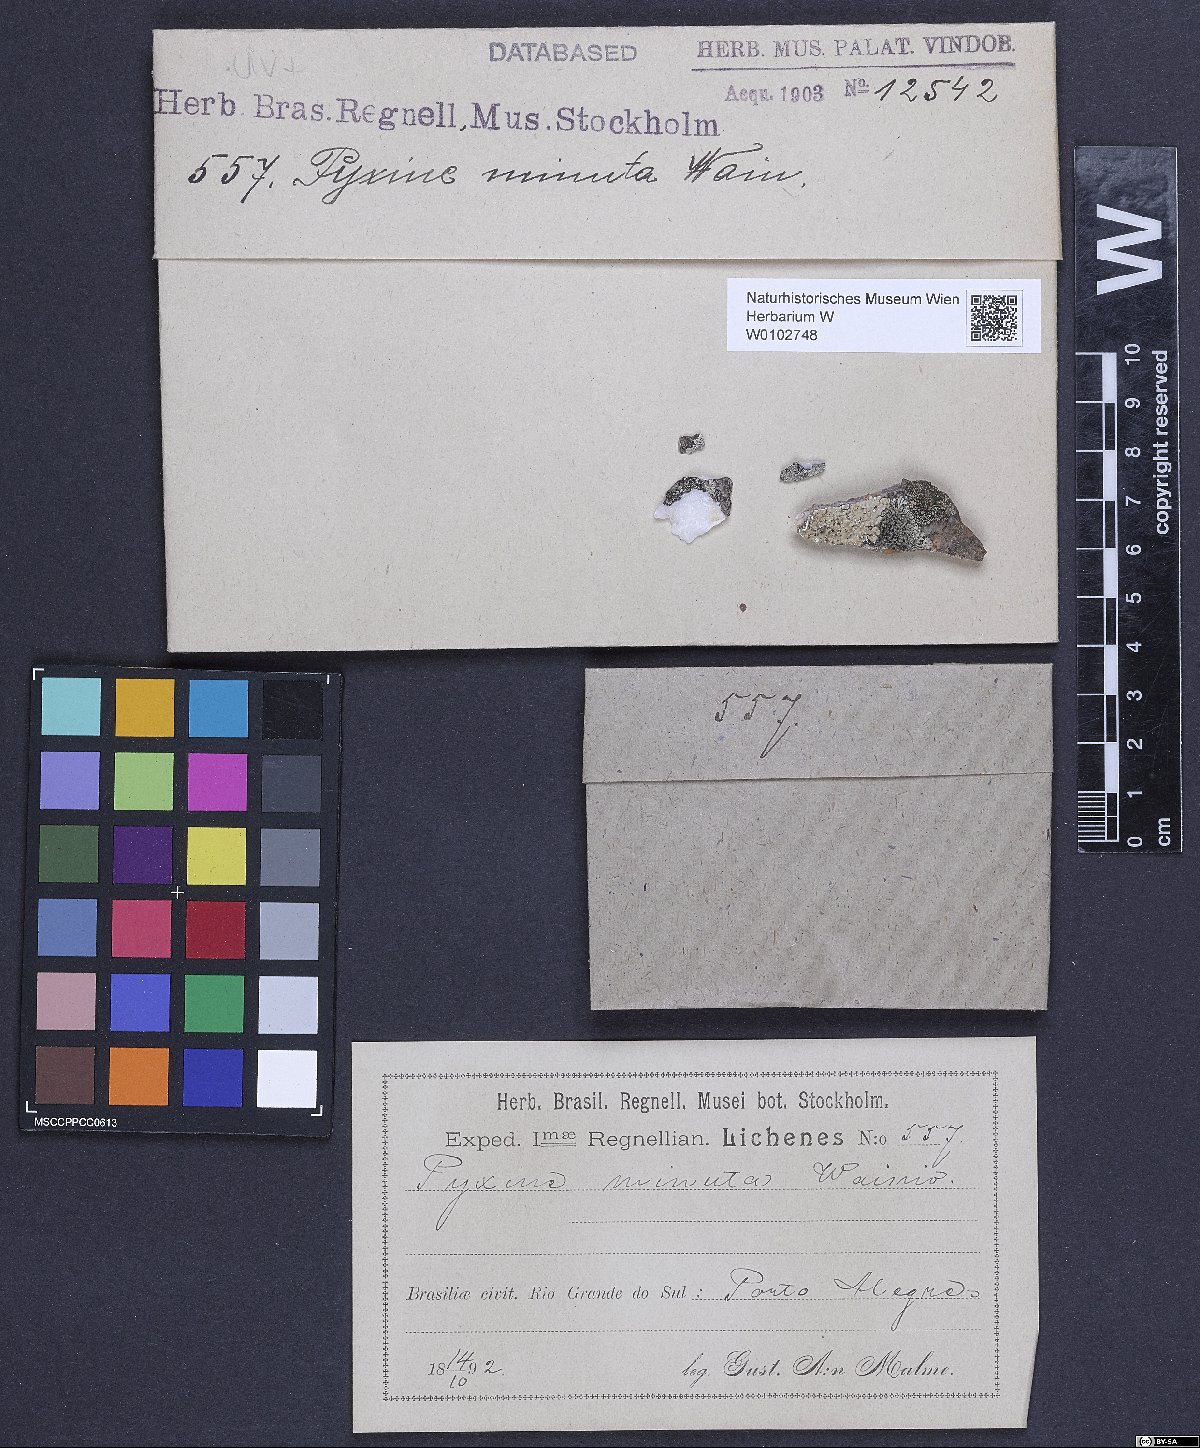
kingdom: Fungi
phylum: Ascomycota
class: Lecanoromycetes
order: Caliciales
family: Caliciaceae
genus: Pyxine
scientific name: Pyxine minuta
